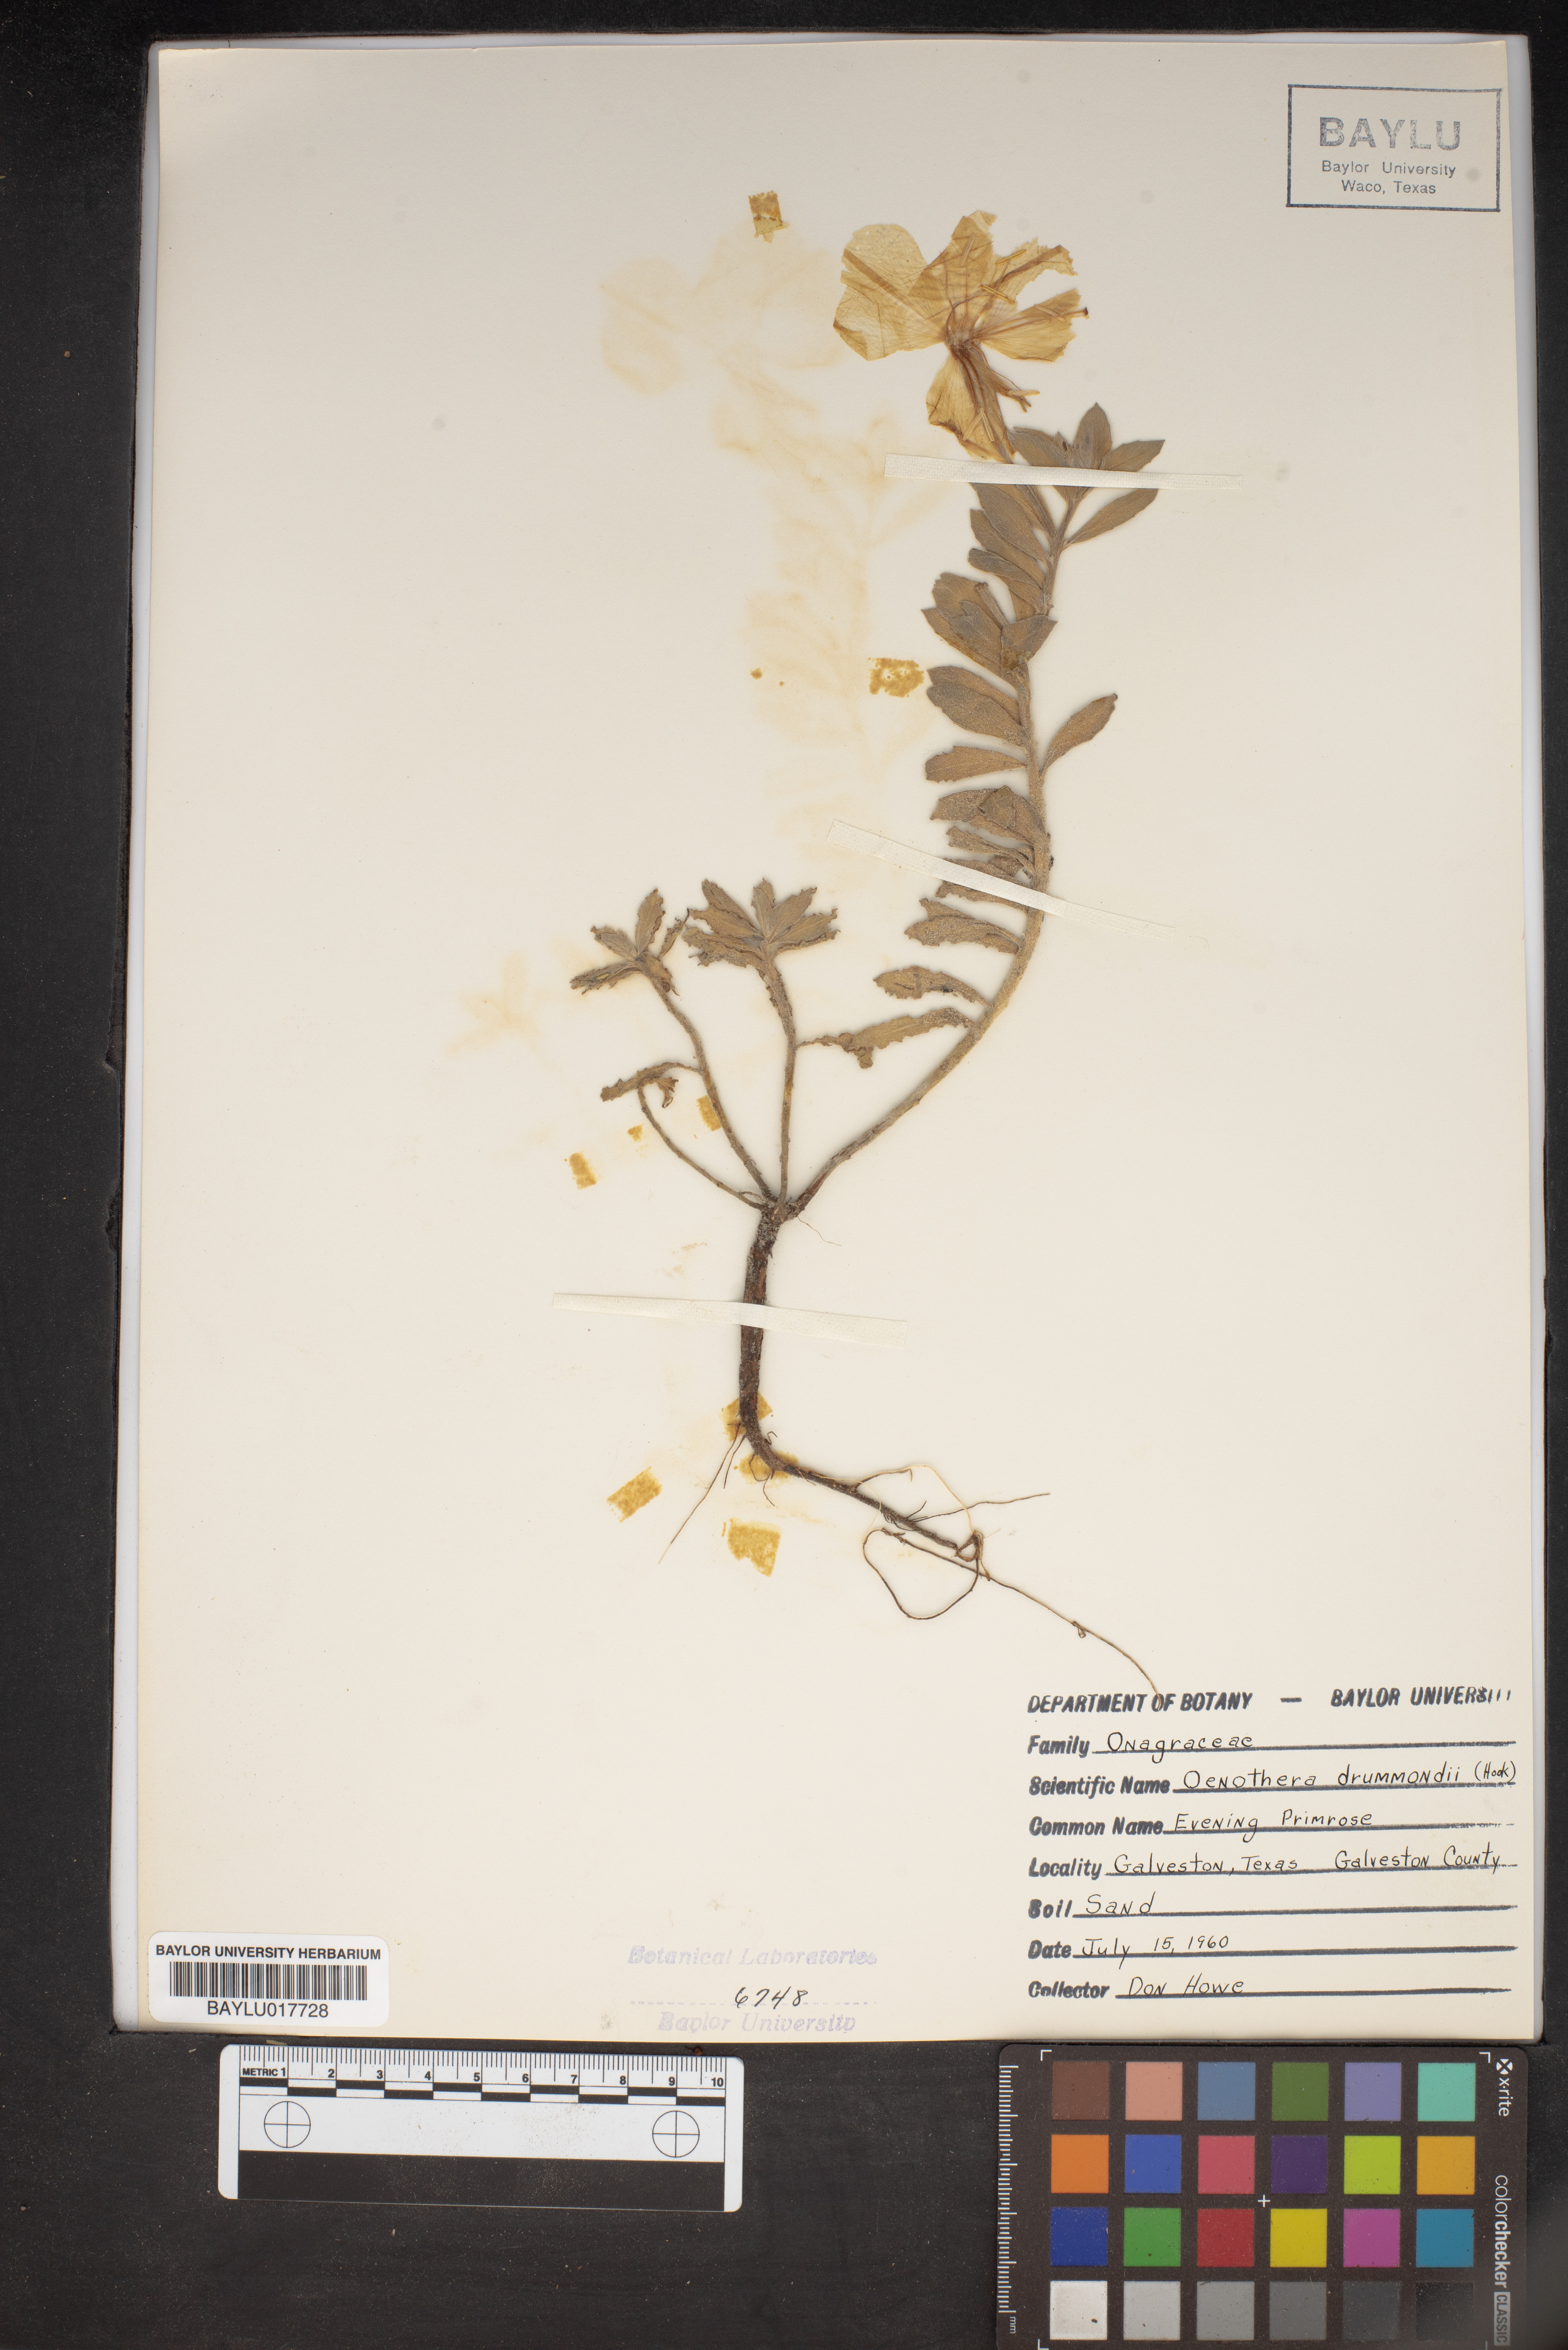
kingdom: Plantae
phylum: Tracheophyta
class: Magnoliopsida
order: Myrtales
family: Onagraceae
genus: Oenothera
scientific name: Oenothera drummondii
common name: Beach evening-primrose
